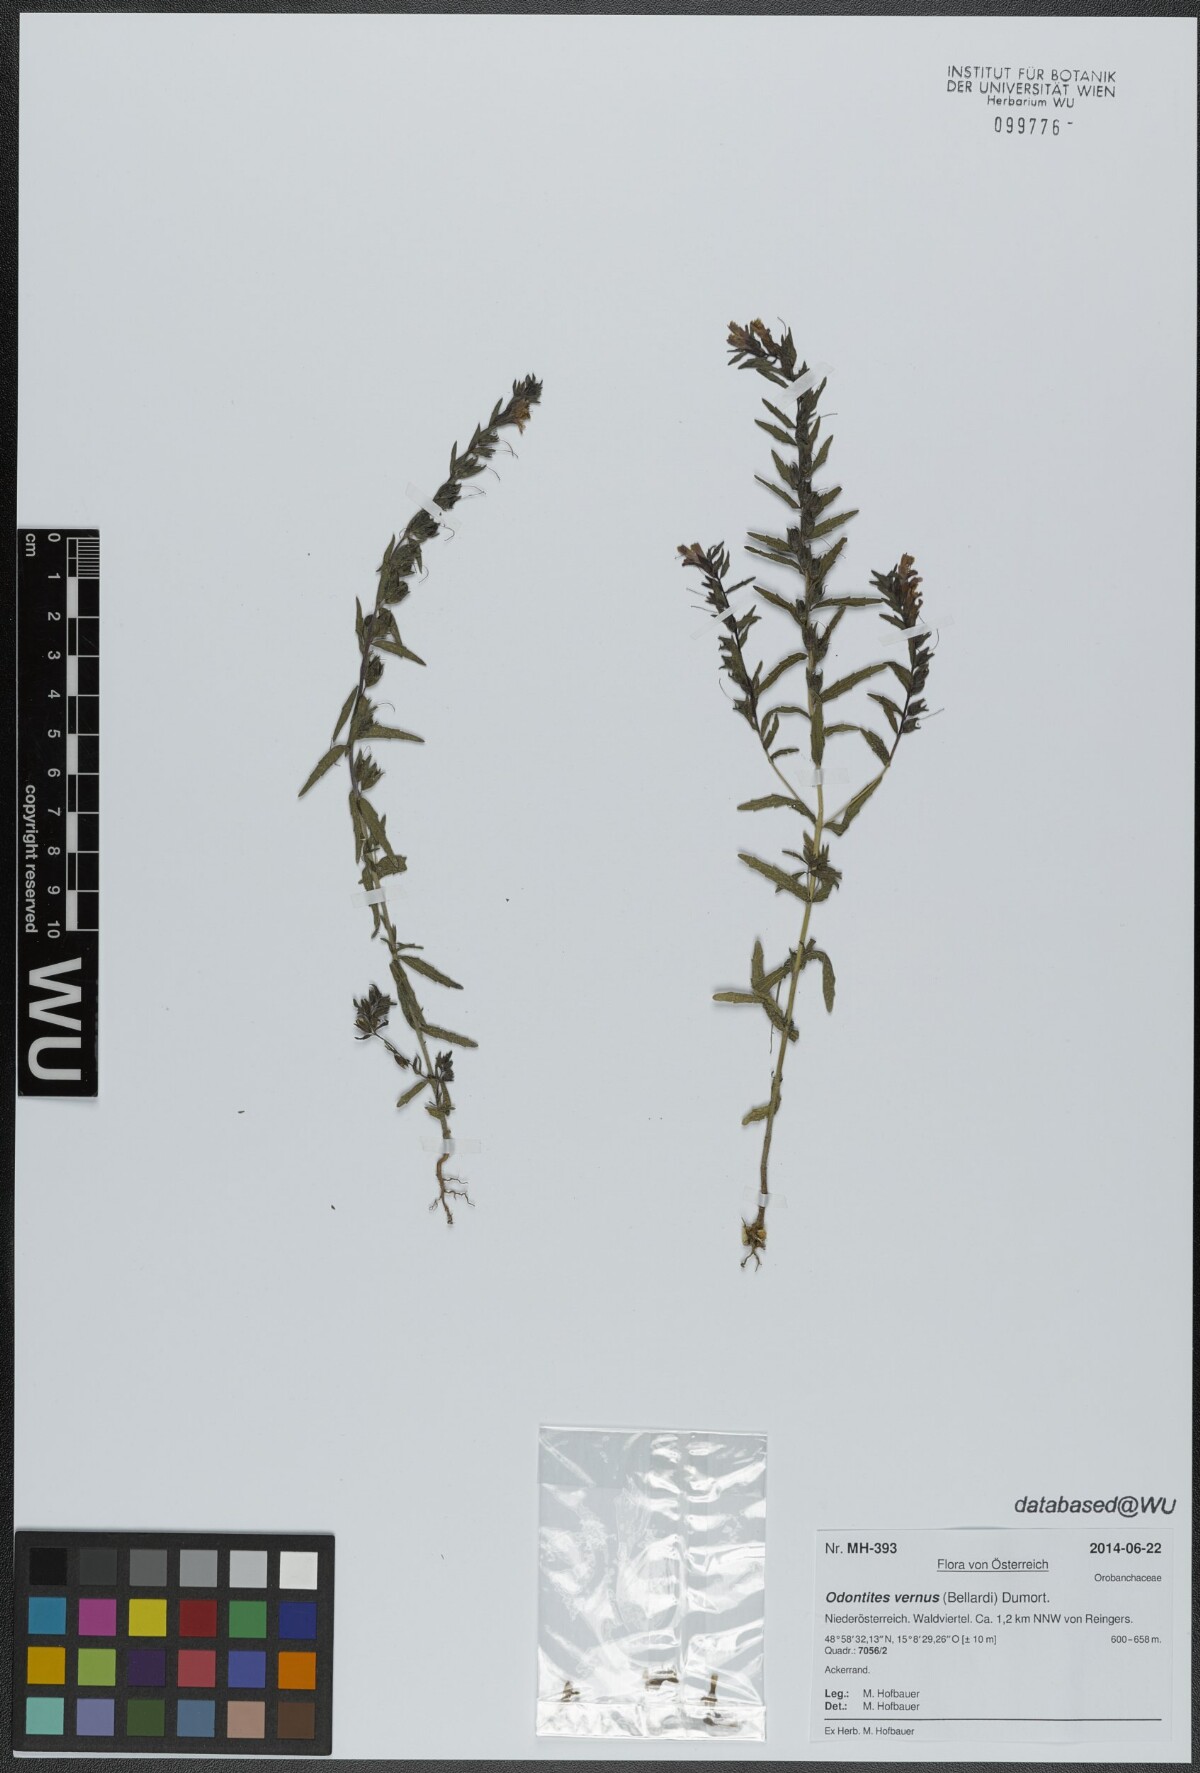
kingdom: Plantae
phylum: Tracheophyta
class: Magnoliopsida
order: Lamiales
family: Orobanchaceae
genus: Odontites
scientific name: Odontites vernus
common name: Red bartsia
